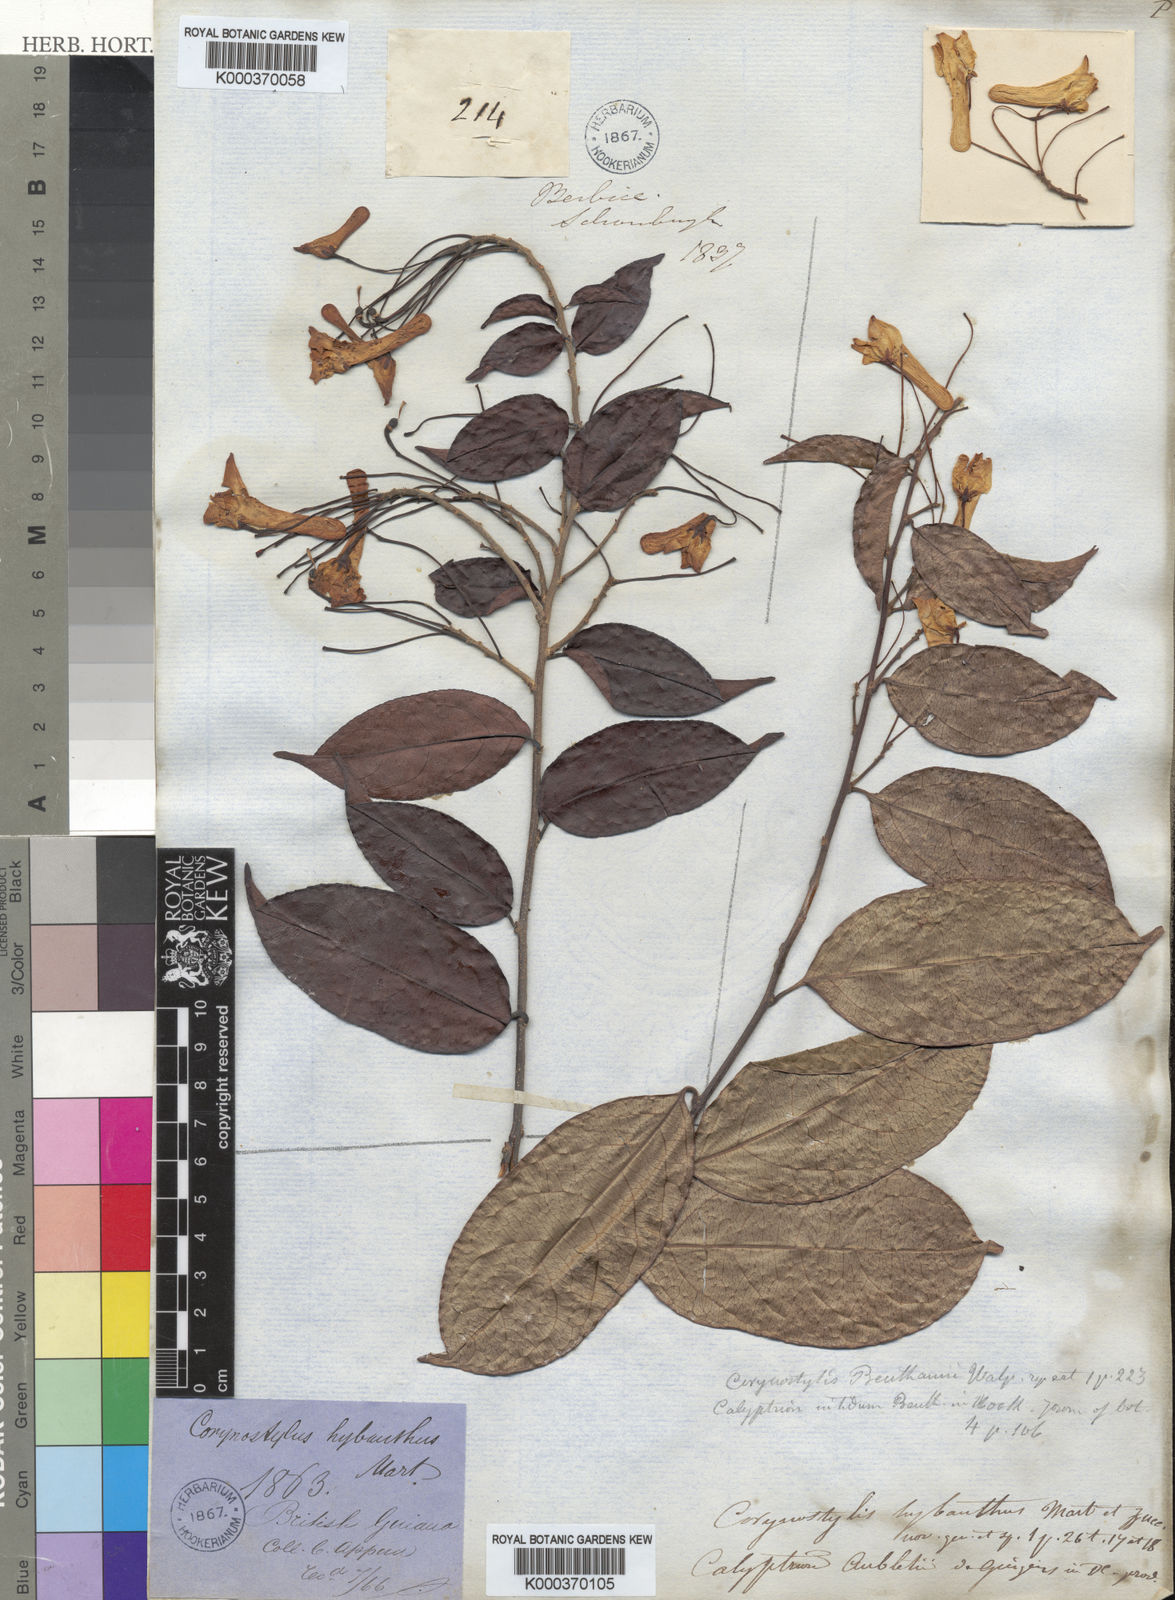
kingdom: Plantae
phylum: Tracheophyta
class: Magnoliopsida
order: Malpighiales
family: Violaceae
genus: Calyptrion
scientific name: Calyptrion arboreum
